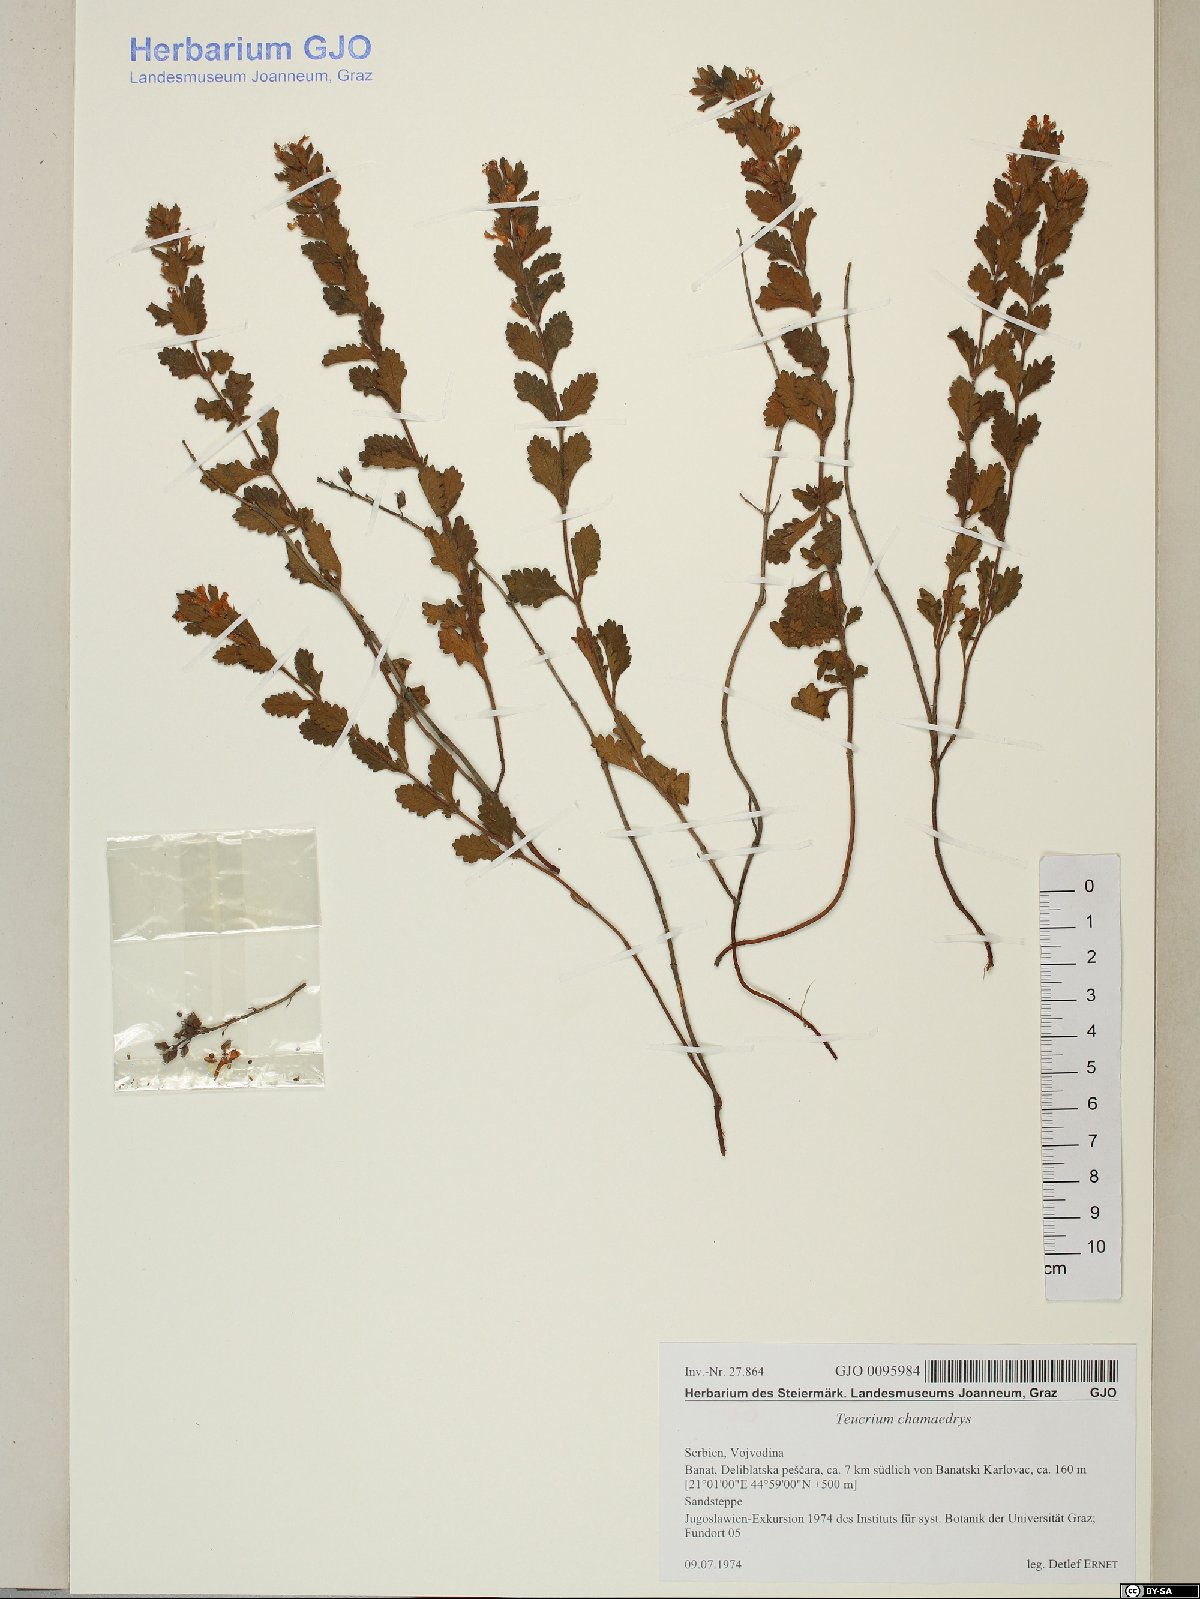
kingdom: Plantae
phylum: Tracheophyta
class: Magnoliopsida
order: Lamiales
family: Lamiaceae
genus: Teucrium
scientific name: Teucrium chamaedrys
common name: Wall germander
